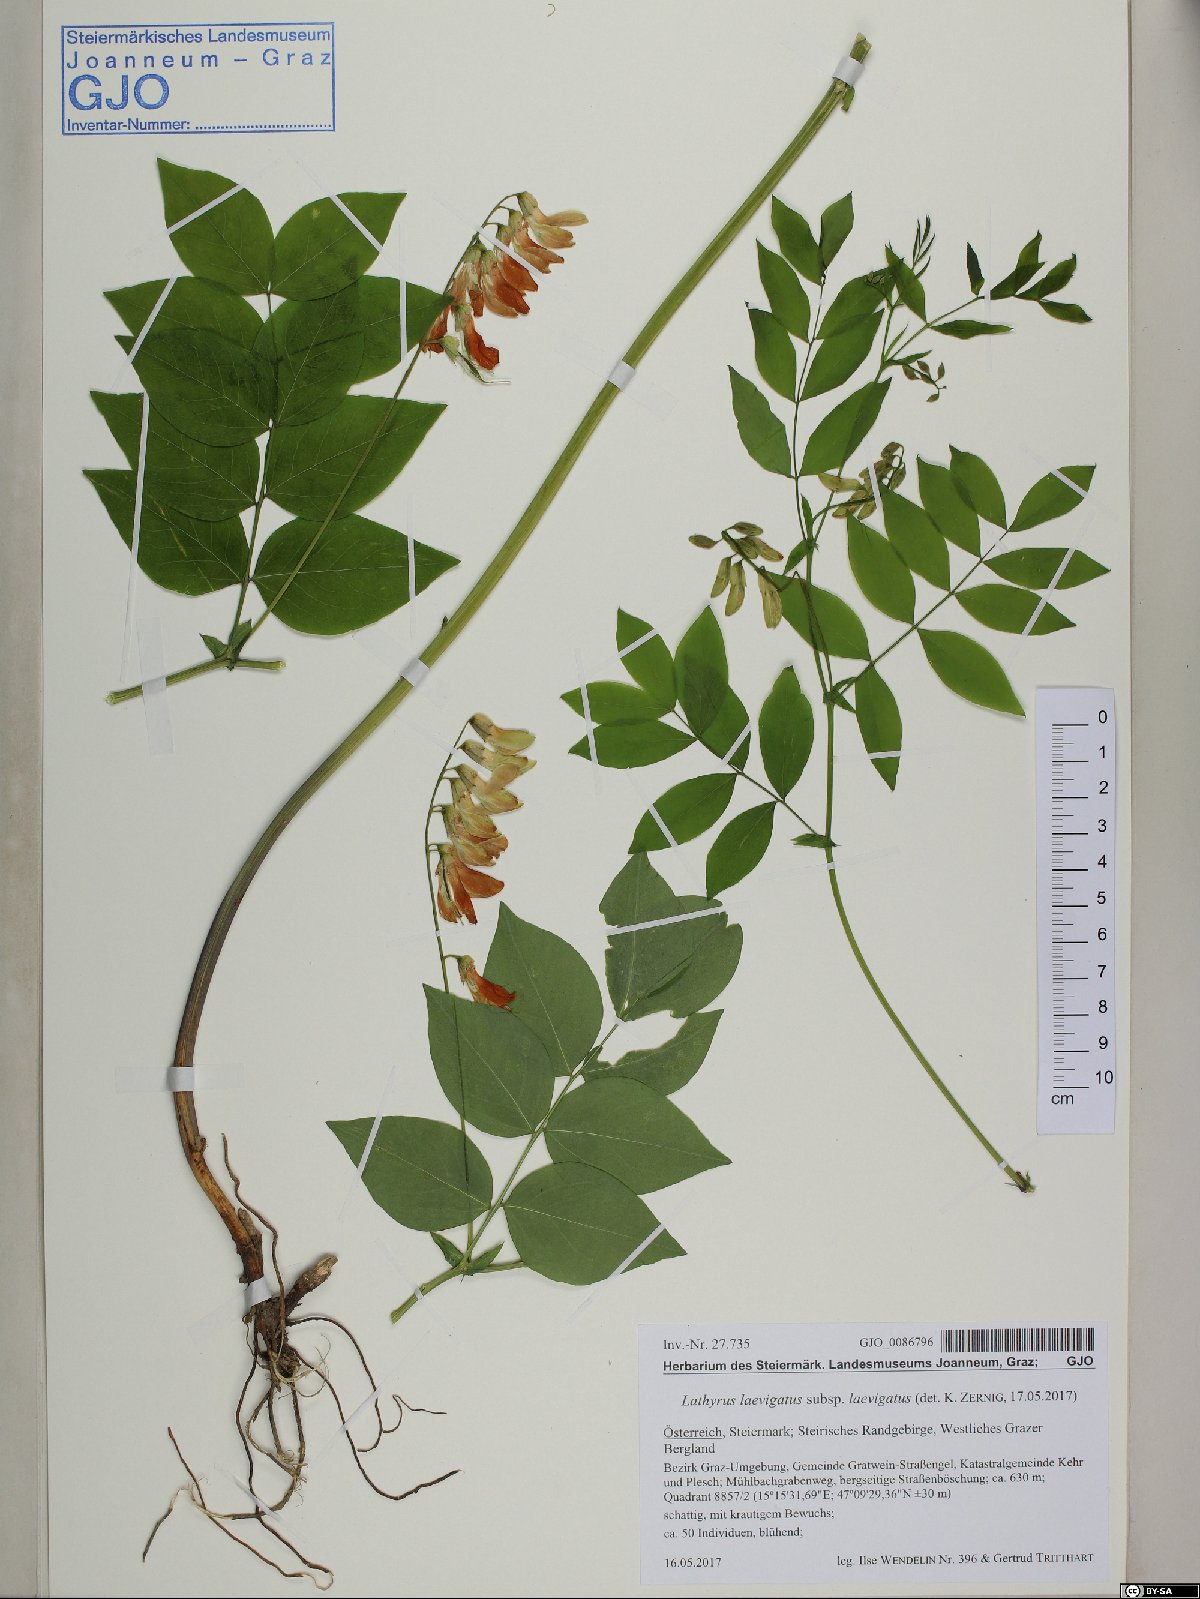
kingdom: Plantae
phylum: Tracheophyta
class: Magnoliopsida
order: Fabales
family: Fabaceae
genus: Lathyrus
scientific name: Lathyrus laevigatus
